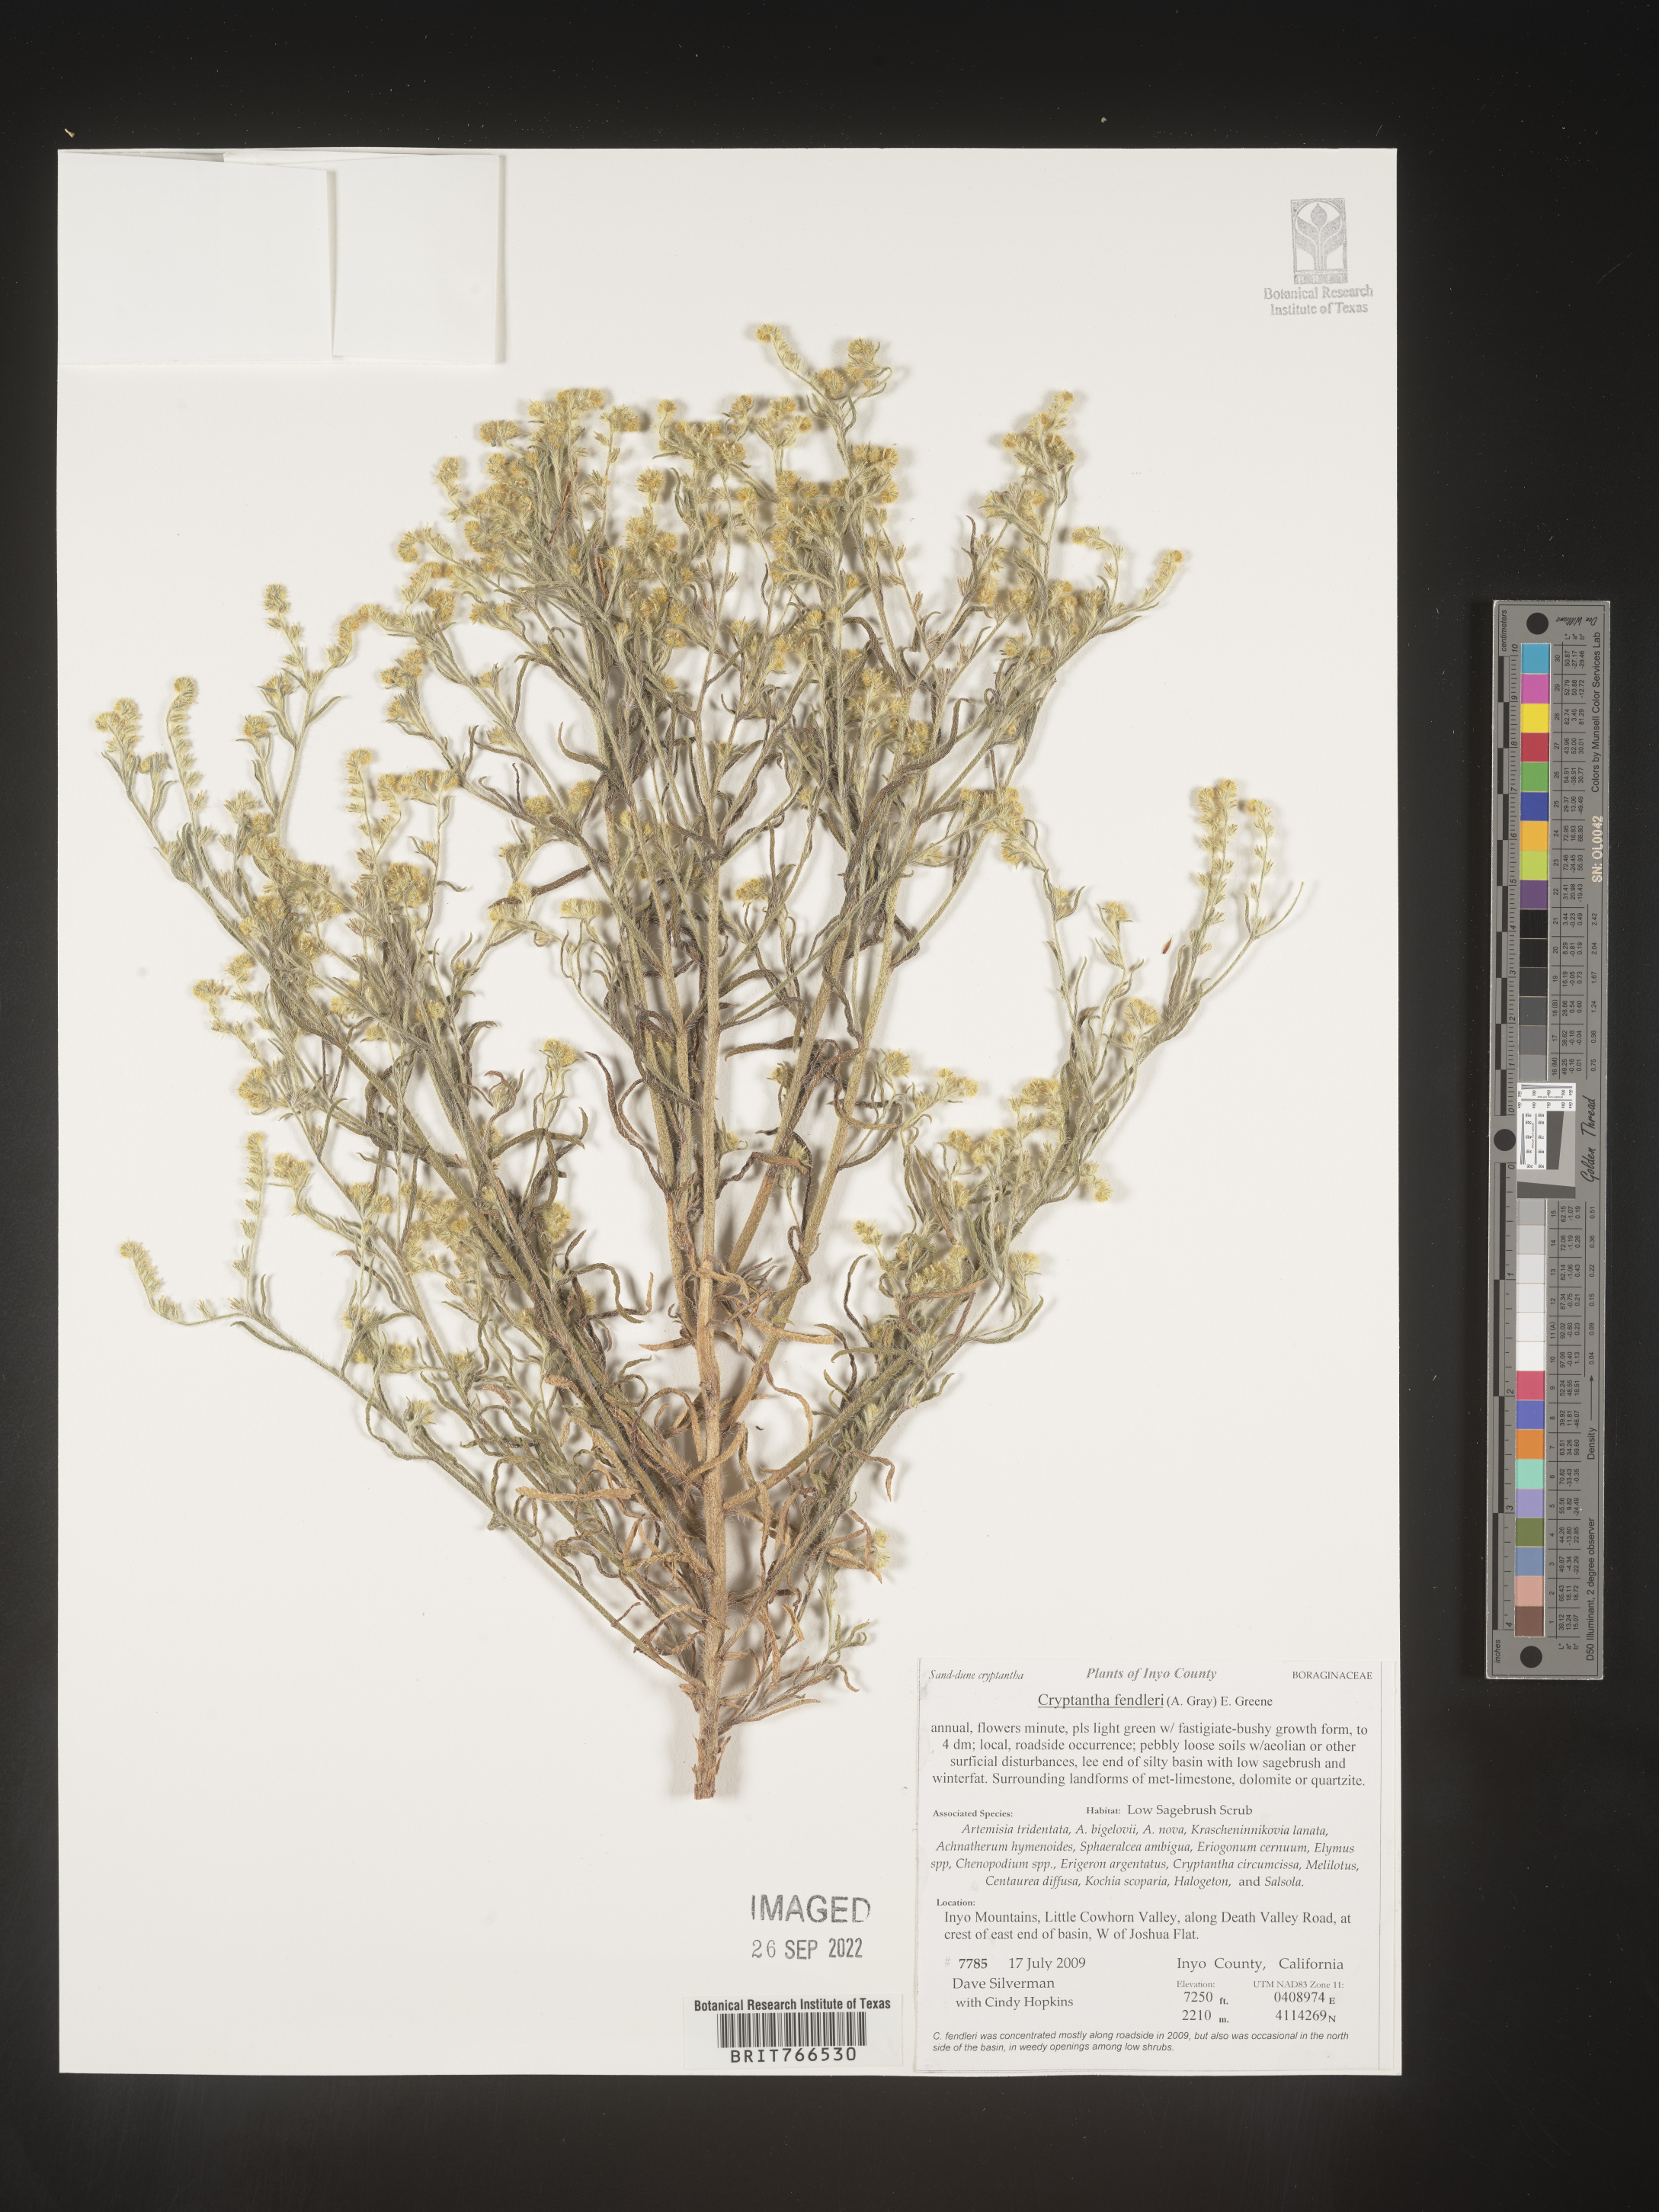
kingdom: Plantae
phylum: Tracheophyta
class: Magnoliopsida
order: Boraginales
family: Boraginaceae
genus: Cryptantha
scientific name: Cryptantha fendleri
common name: Sand-dune cryptantha
